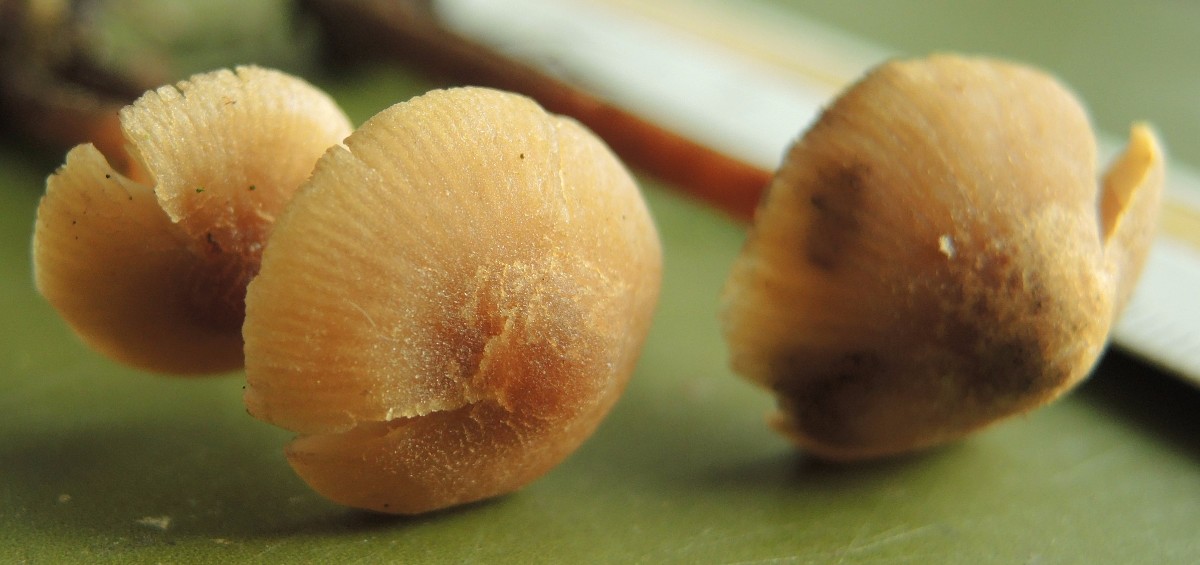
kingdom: Fungi
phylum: Basidiomycota
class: Agaricomycetes
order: Agaricales
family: Hymenogastraceae
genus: Naucoria
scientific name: Naucoria striatula
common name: stribet knaphat
